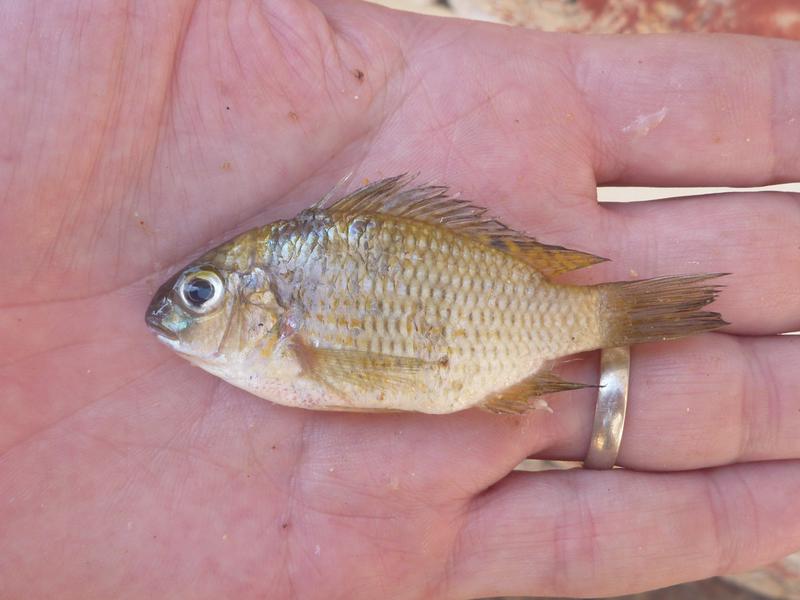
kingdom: Animalia
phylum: Chordata
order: Perciformes
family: Cichlidae
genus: Coptodon
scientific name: Coptodon zillii
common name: Redbelly tilapia
